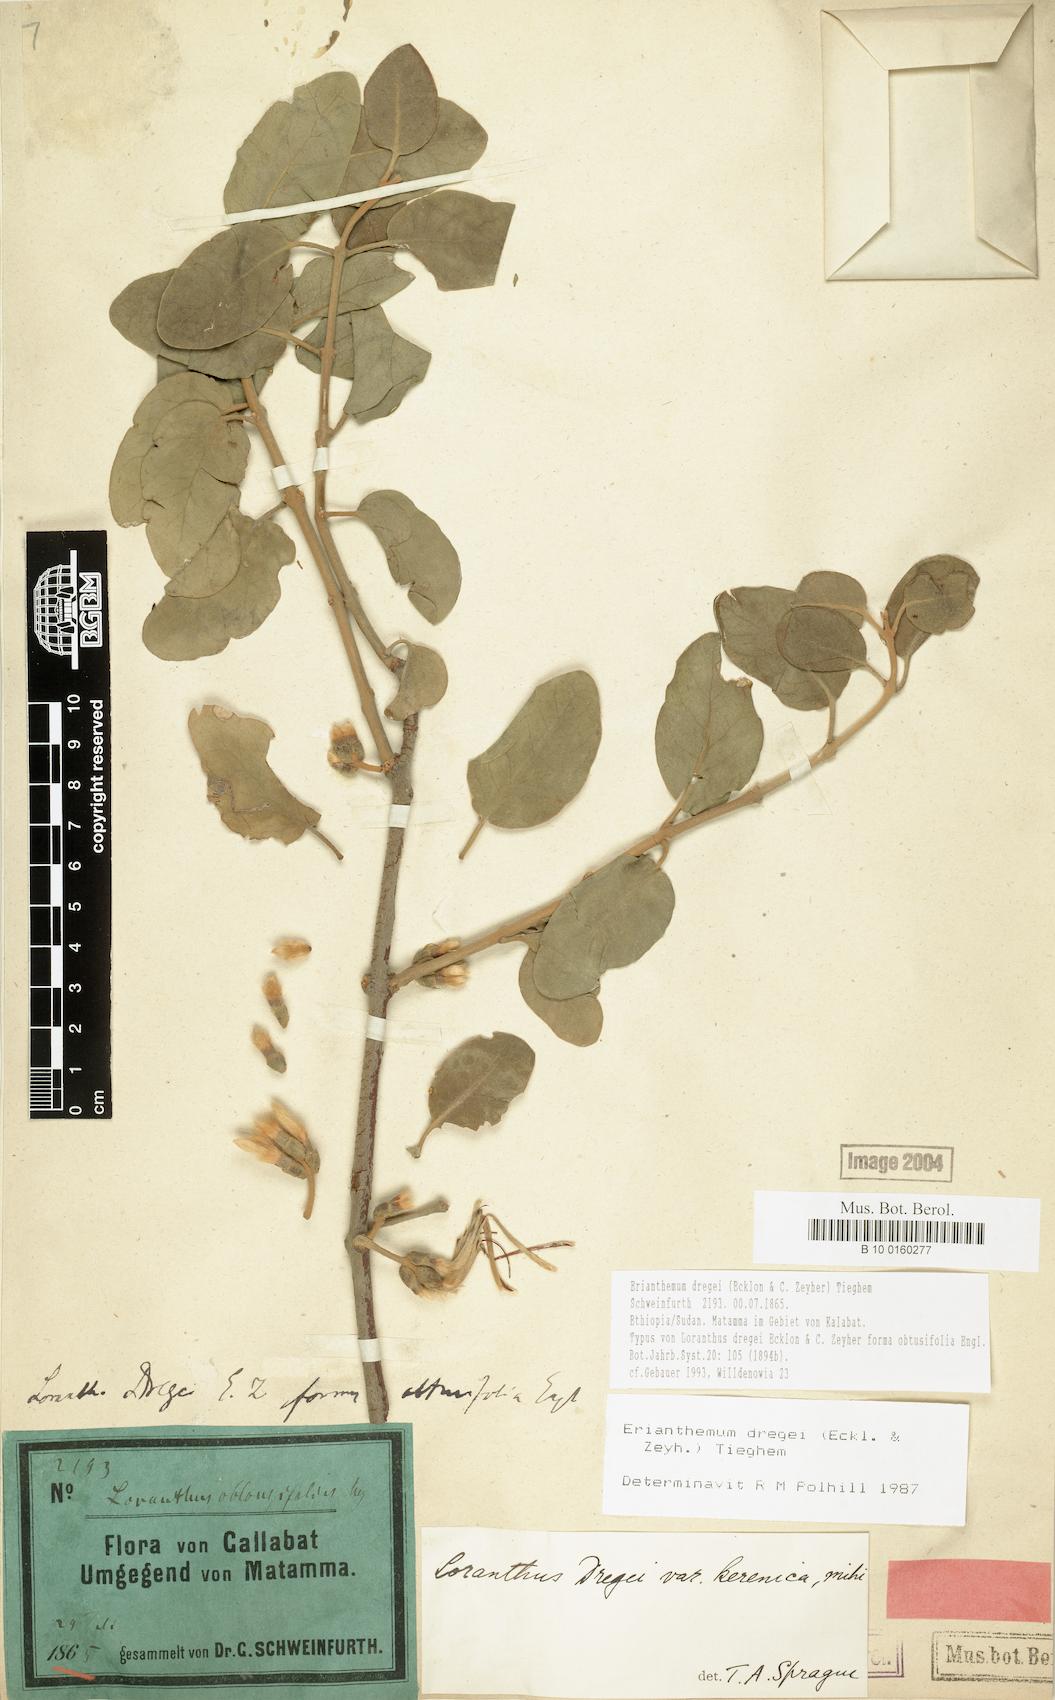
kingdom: Plantae
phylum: Tracheophyta
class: Magnoliopsida
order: Santalales
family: Loranthaceae
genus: Erianthemum
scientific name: Erianthemum dregei
